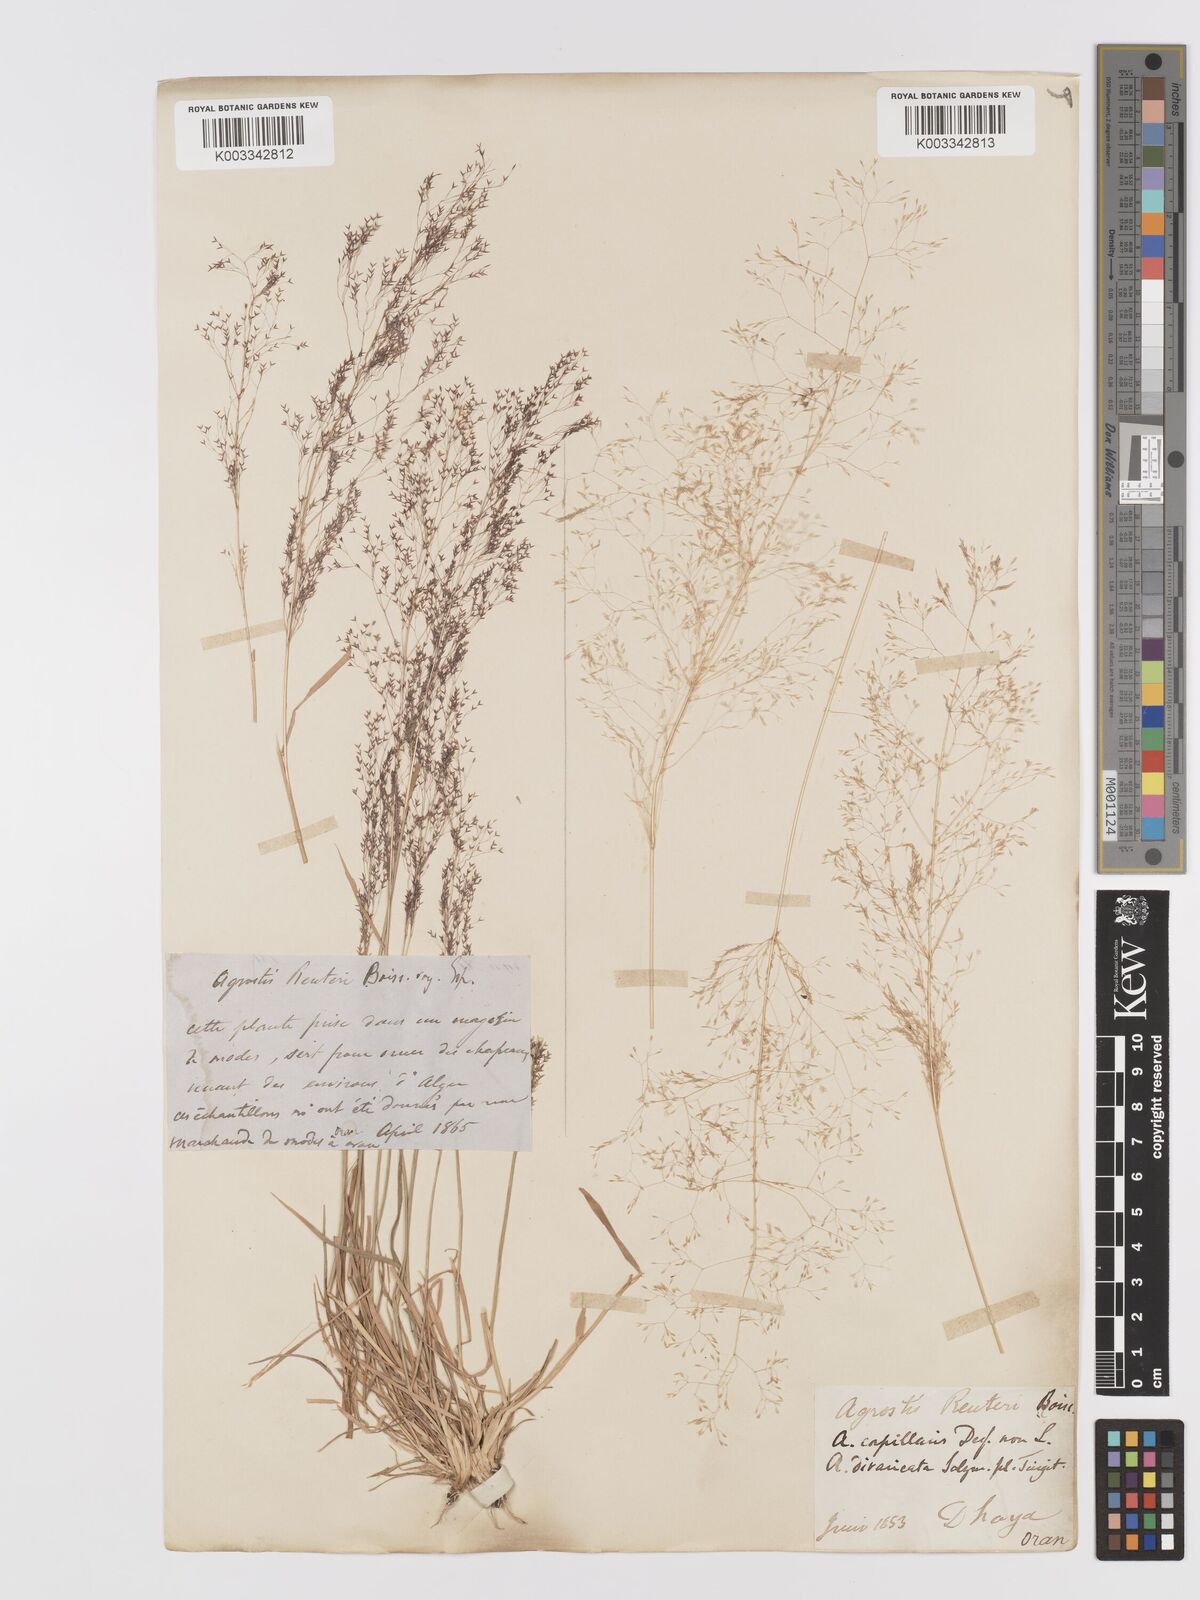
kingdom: Plantae
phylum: Tracheophyta
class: Liliopsida
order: Poales
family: Poaceae
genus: Agrostis
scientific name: Agrostis reuteri
